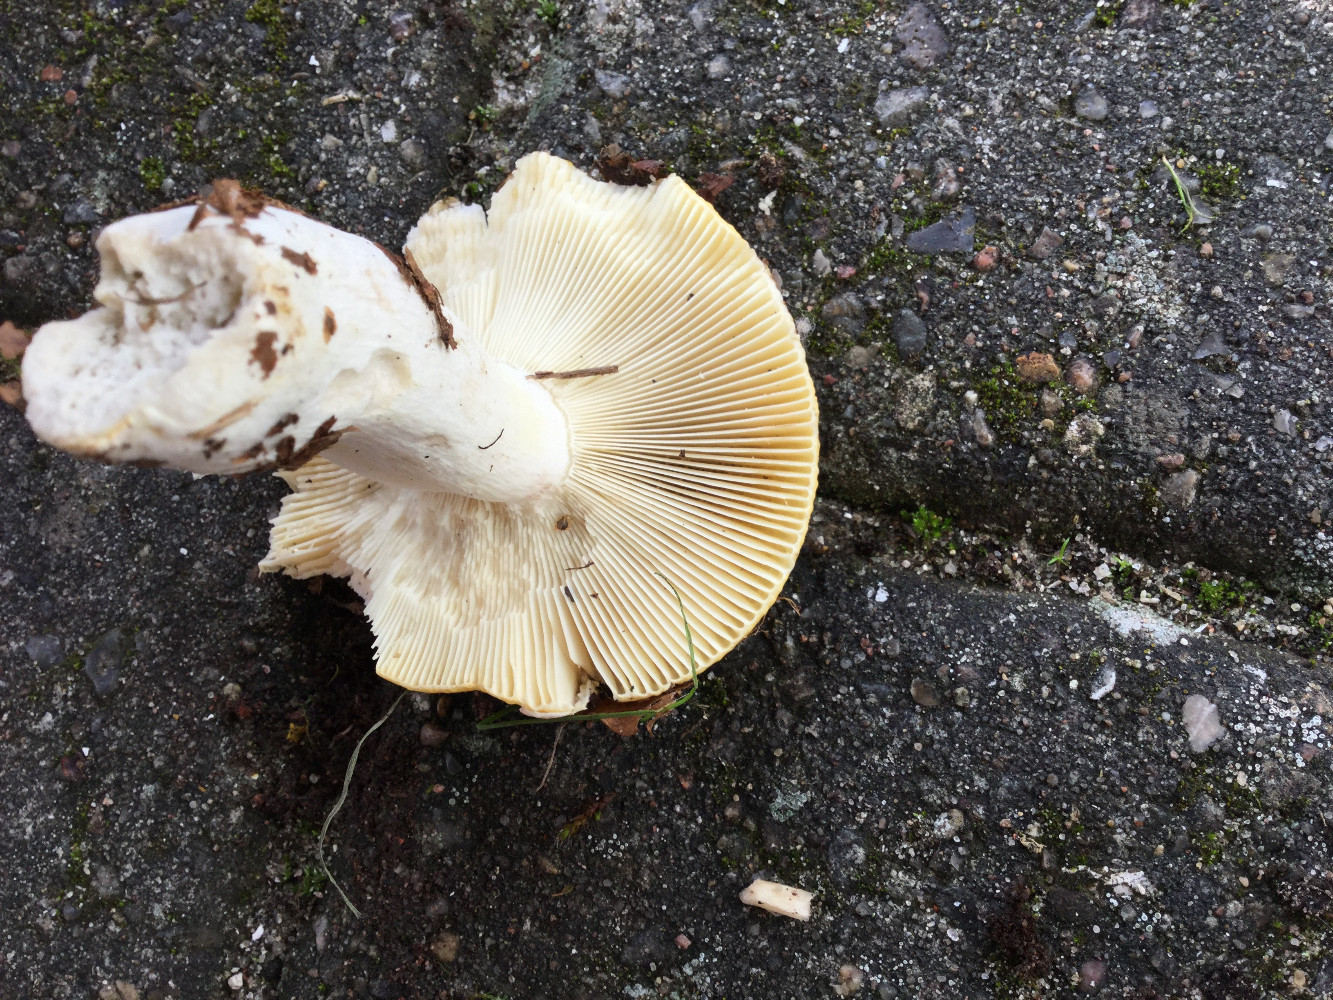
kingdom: Fungi
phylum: Basidiomycota
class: Agaricomycetes
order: Russulales
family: Russulaceae
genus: Russula
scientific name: Russula claroflava
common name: birke-skørhat
